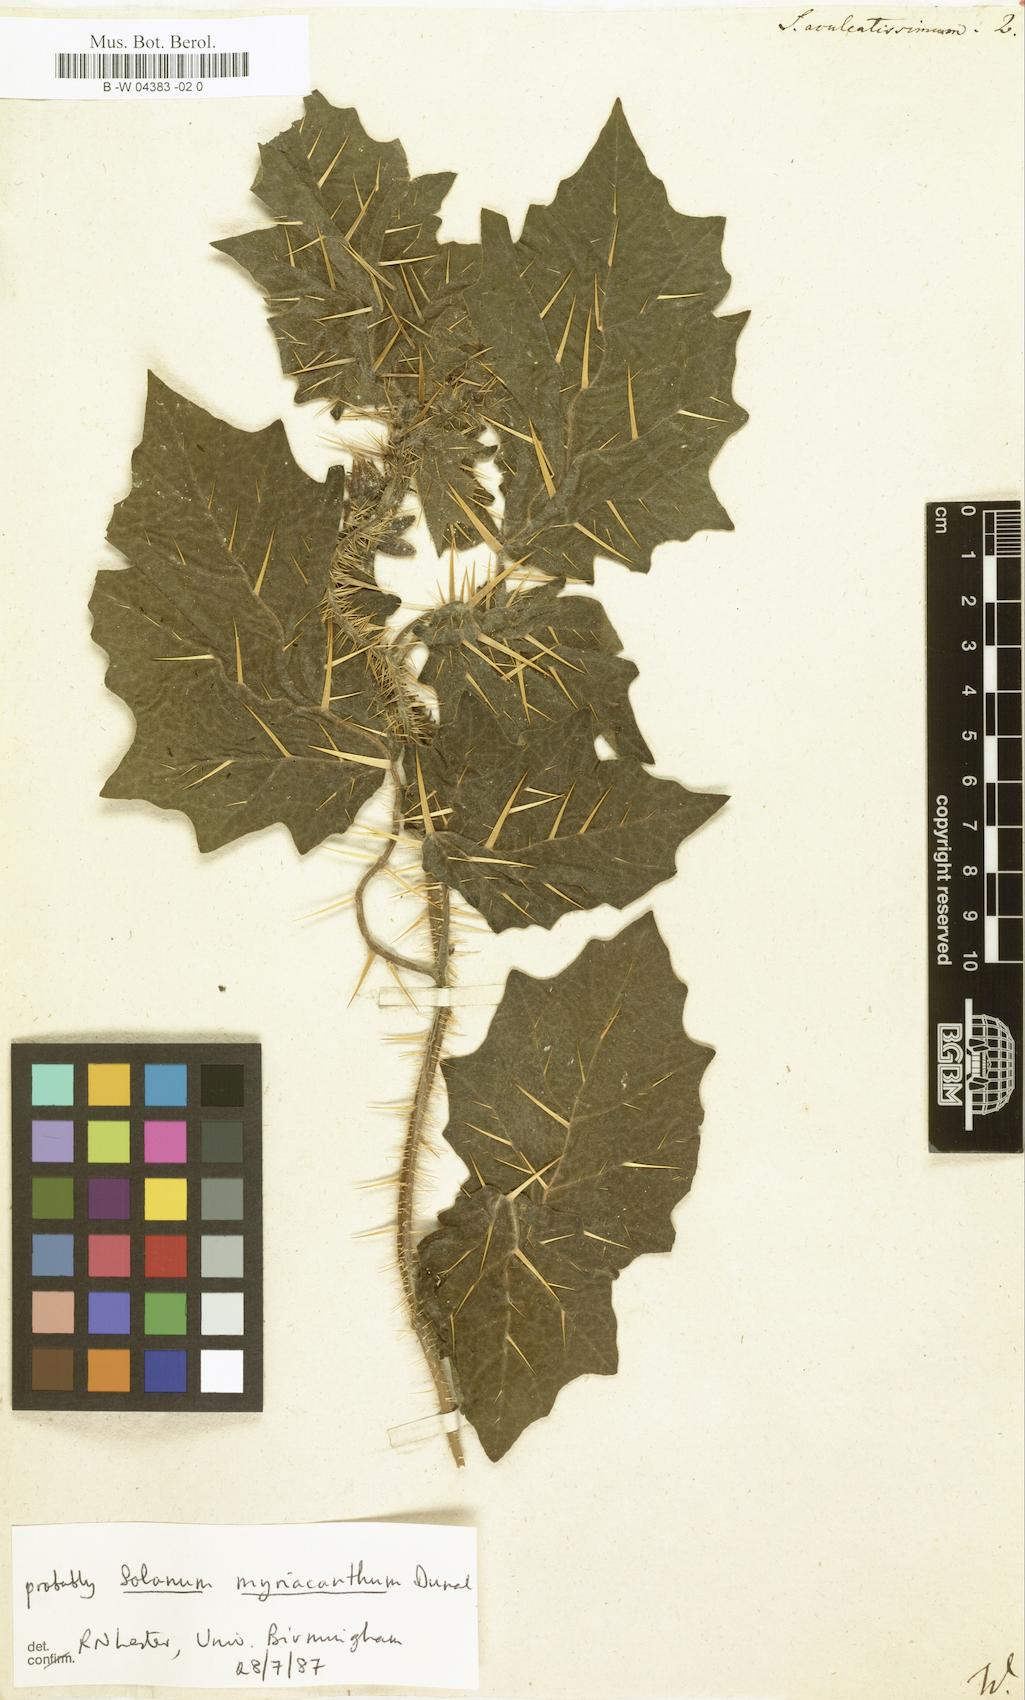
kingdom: Plantae
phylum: Tracheophyta
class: Magnoliopsida
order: Solanales
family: Solanaceae
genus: Solanum
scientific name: Solanum aculeatissimum
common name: Dutch eggplant
